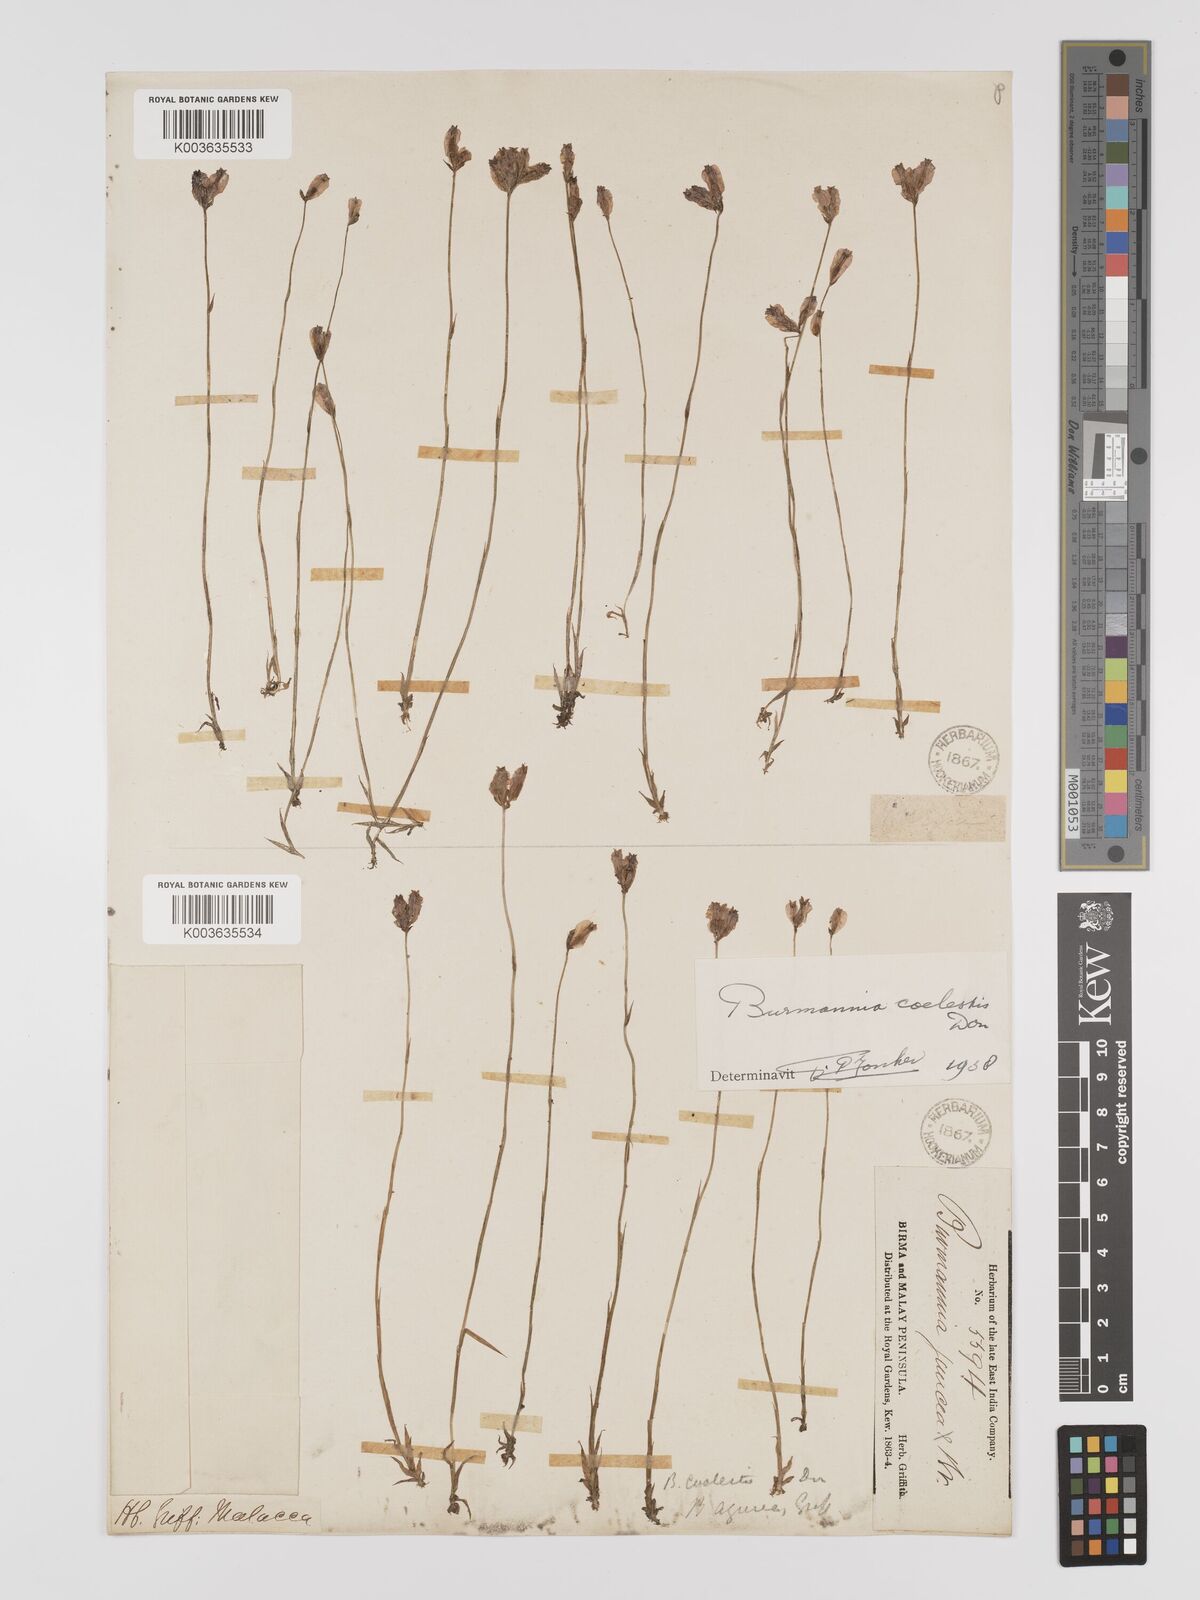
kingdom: Plantae
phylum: Tracheophyta
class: Liliopsida
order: Dioscoreales
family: Burmanniaceae
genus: Burmannia
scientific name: Burmannia coelestis
